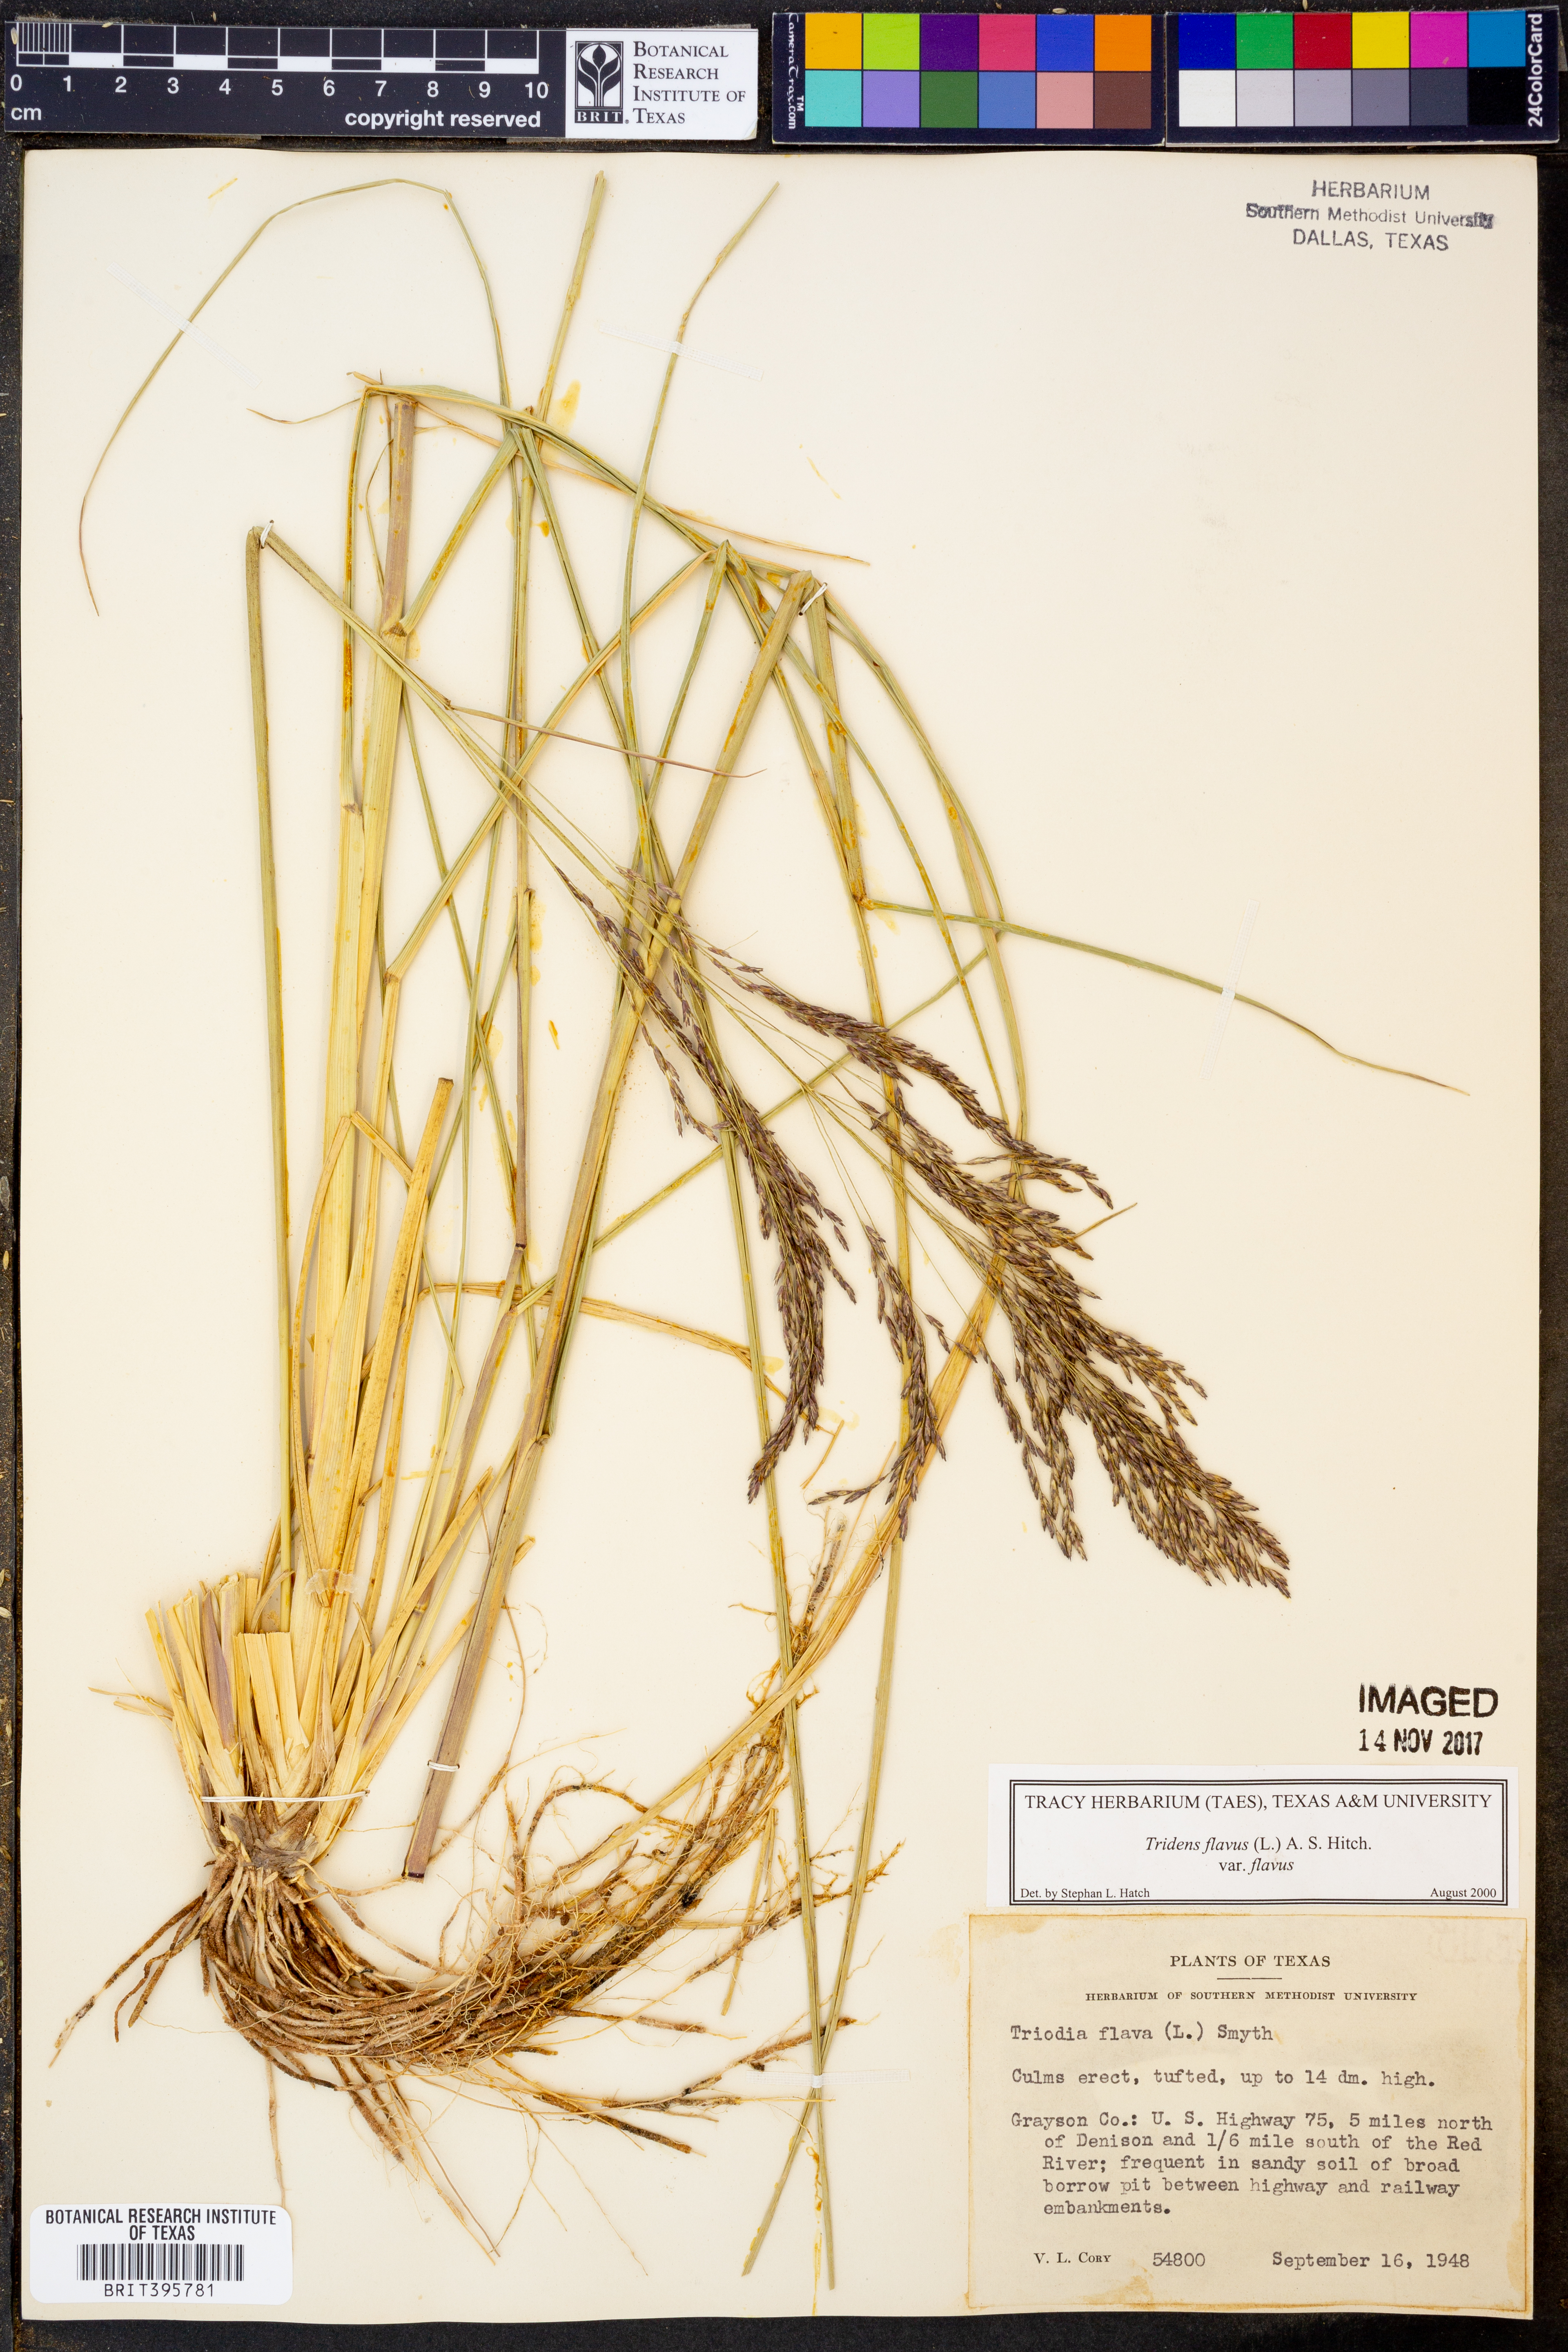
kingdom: Plantae
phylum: Tracheophyta
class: Liliopsida
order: Poales
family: Poaceae
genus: Tridens
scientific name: Tridens flavus
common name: Purpletop
